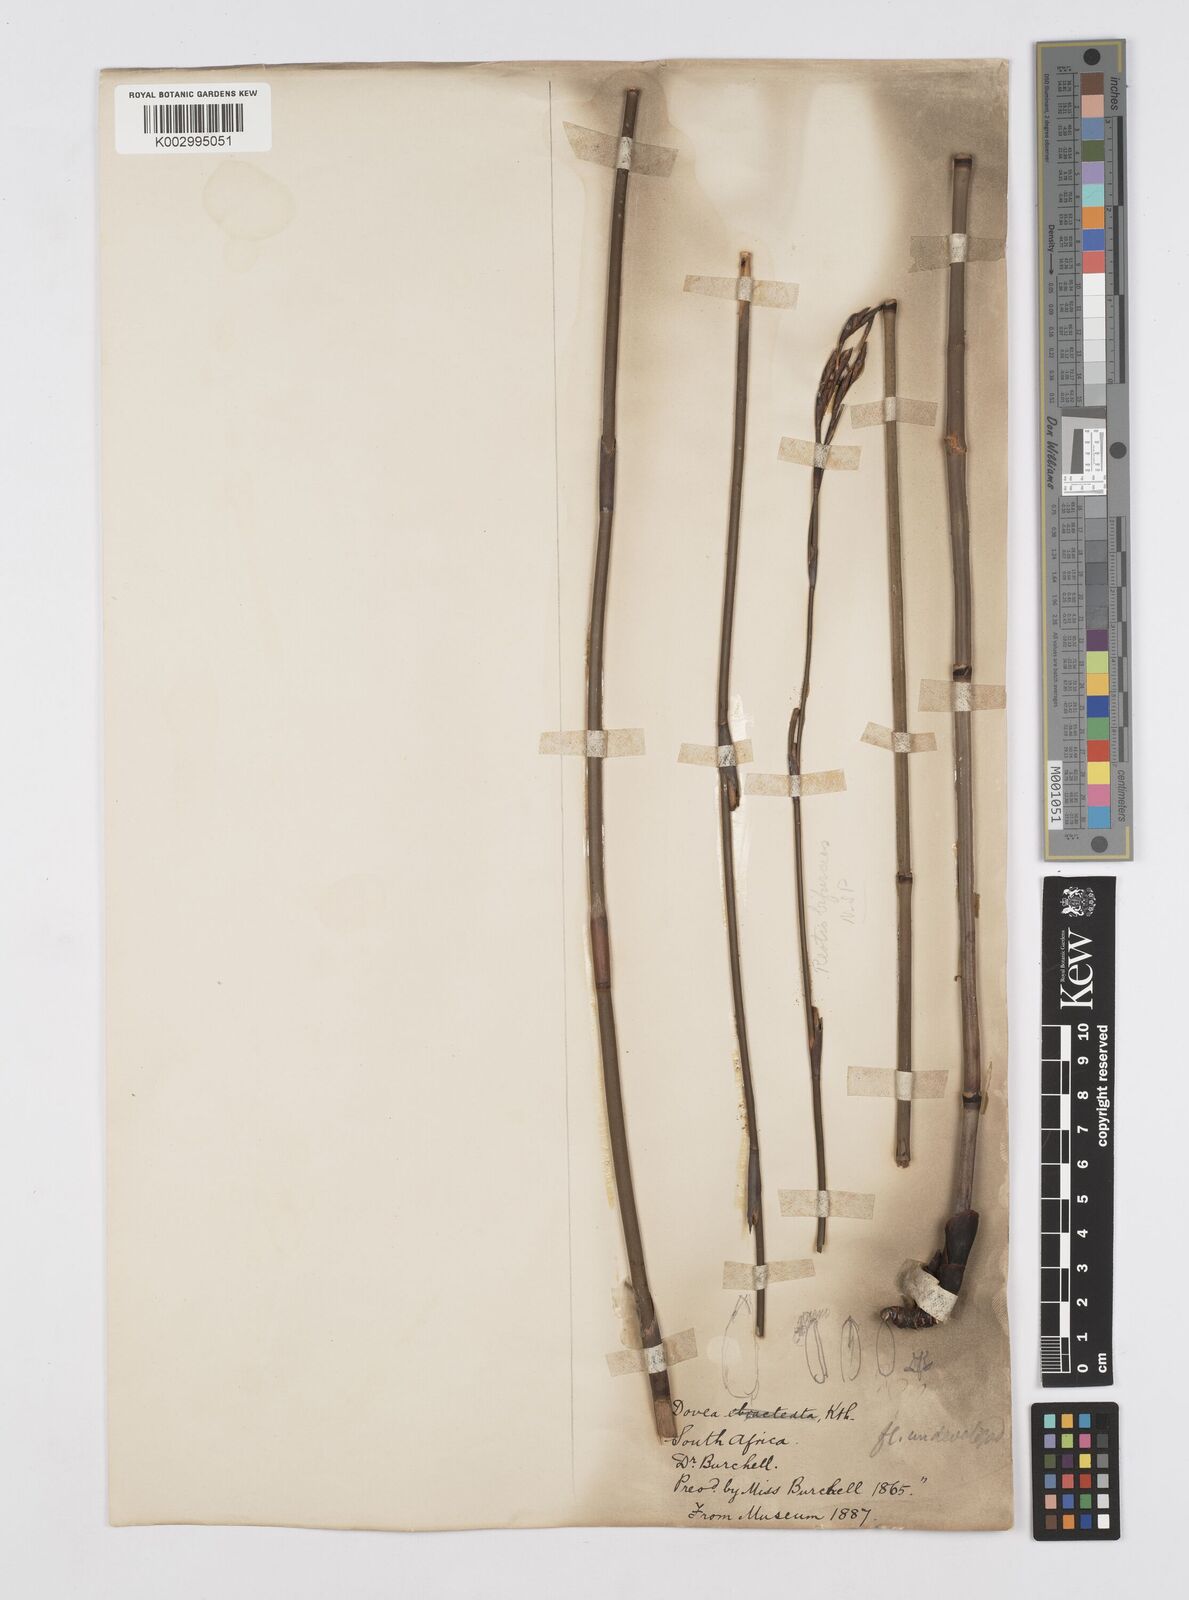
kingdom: Plantae
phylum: Tracheophyta
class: Liliopsida
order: Poales
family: Restionaceae
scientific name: Restionaceae
